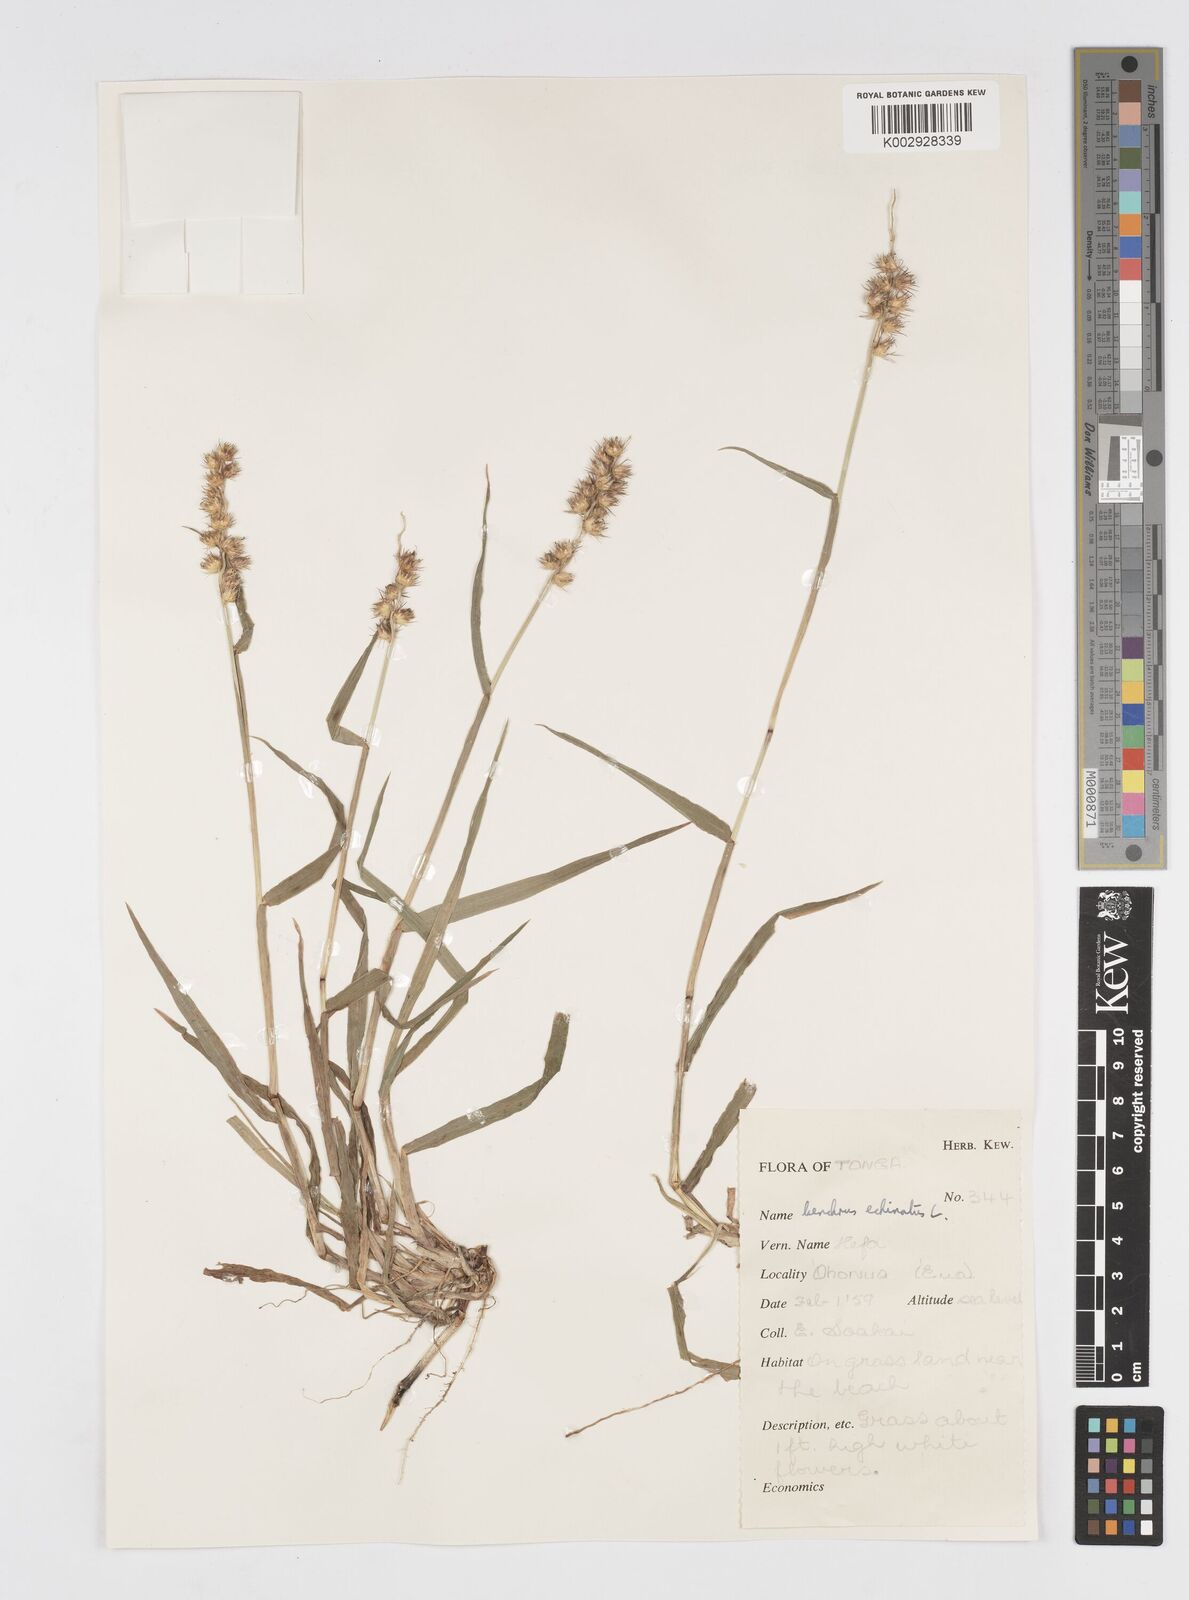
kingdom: Plantae
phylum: Tracheophyta
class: Liliopsida
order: Poales
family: Poaceae
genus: Cenchrus
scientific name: Cenchrus echinatus
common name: Southern sandbur
